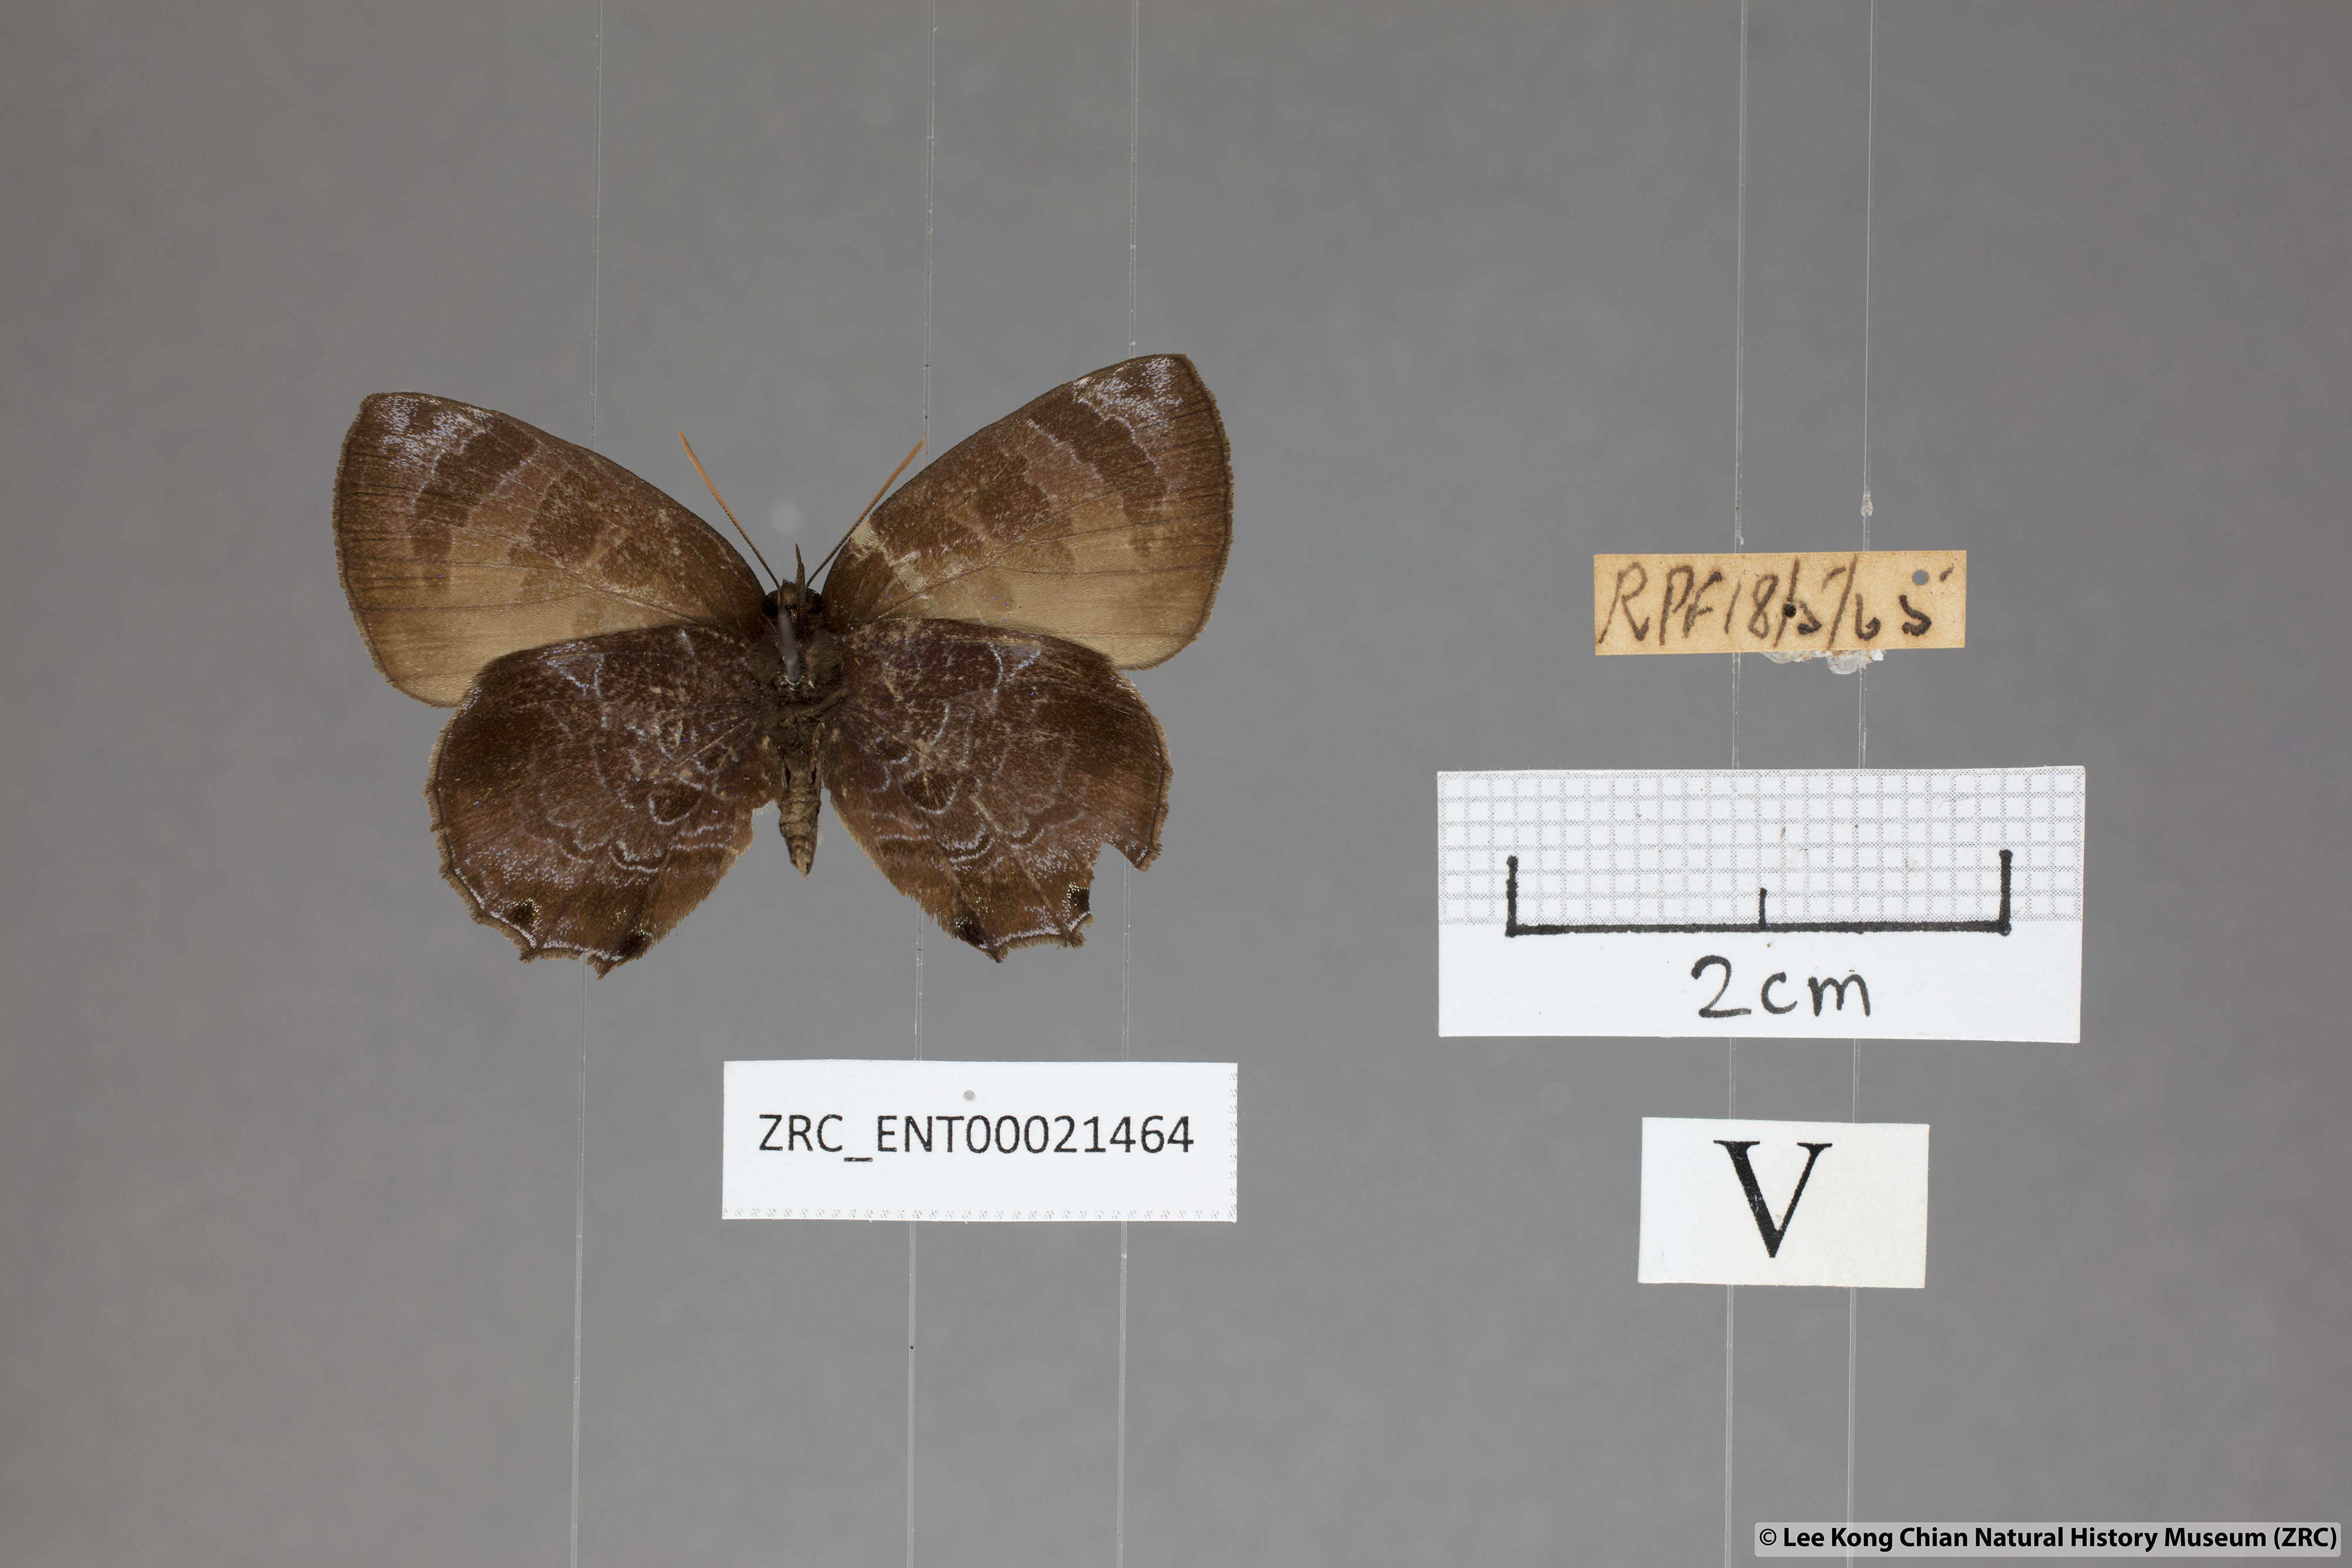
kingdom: Animalia
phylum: Arthropoda
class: Insecta
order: Lepidoptera
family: Lycaenidae
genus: Flos
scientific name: Flos
